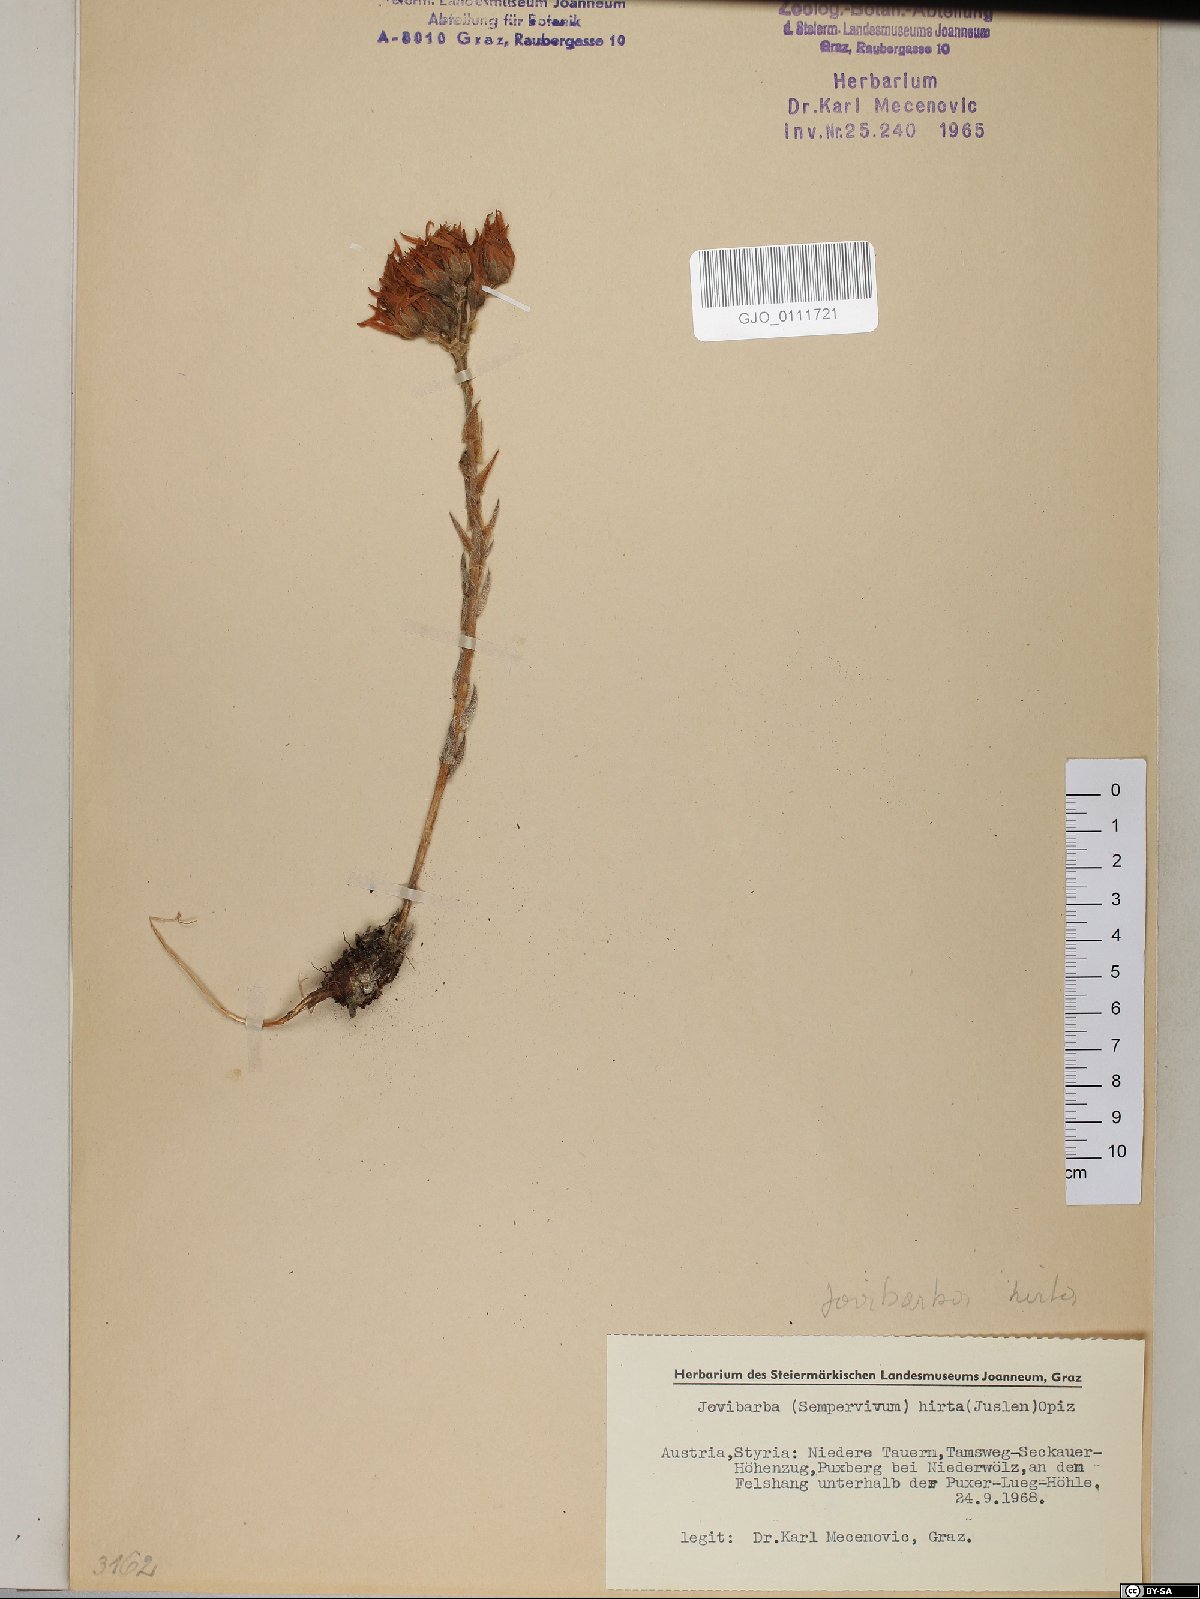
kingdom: Plantae
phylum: Tracheophyta
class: Magnoliopsida
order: Saxifragales
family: Crassulaceae
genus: Sempervivum
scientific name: Sempervivum globiferum
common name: Rolling hen-and-chicks
